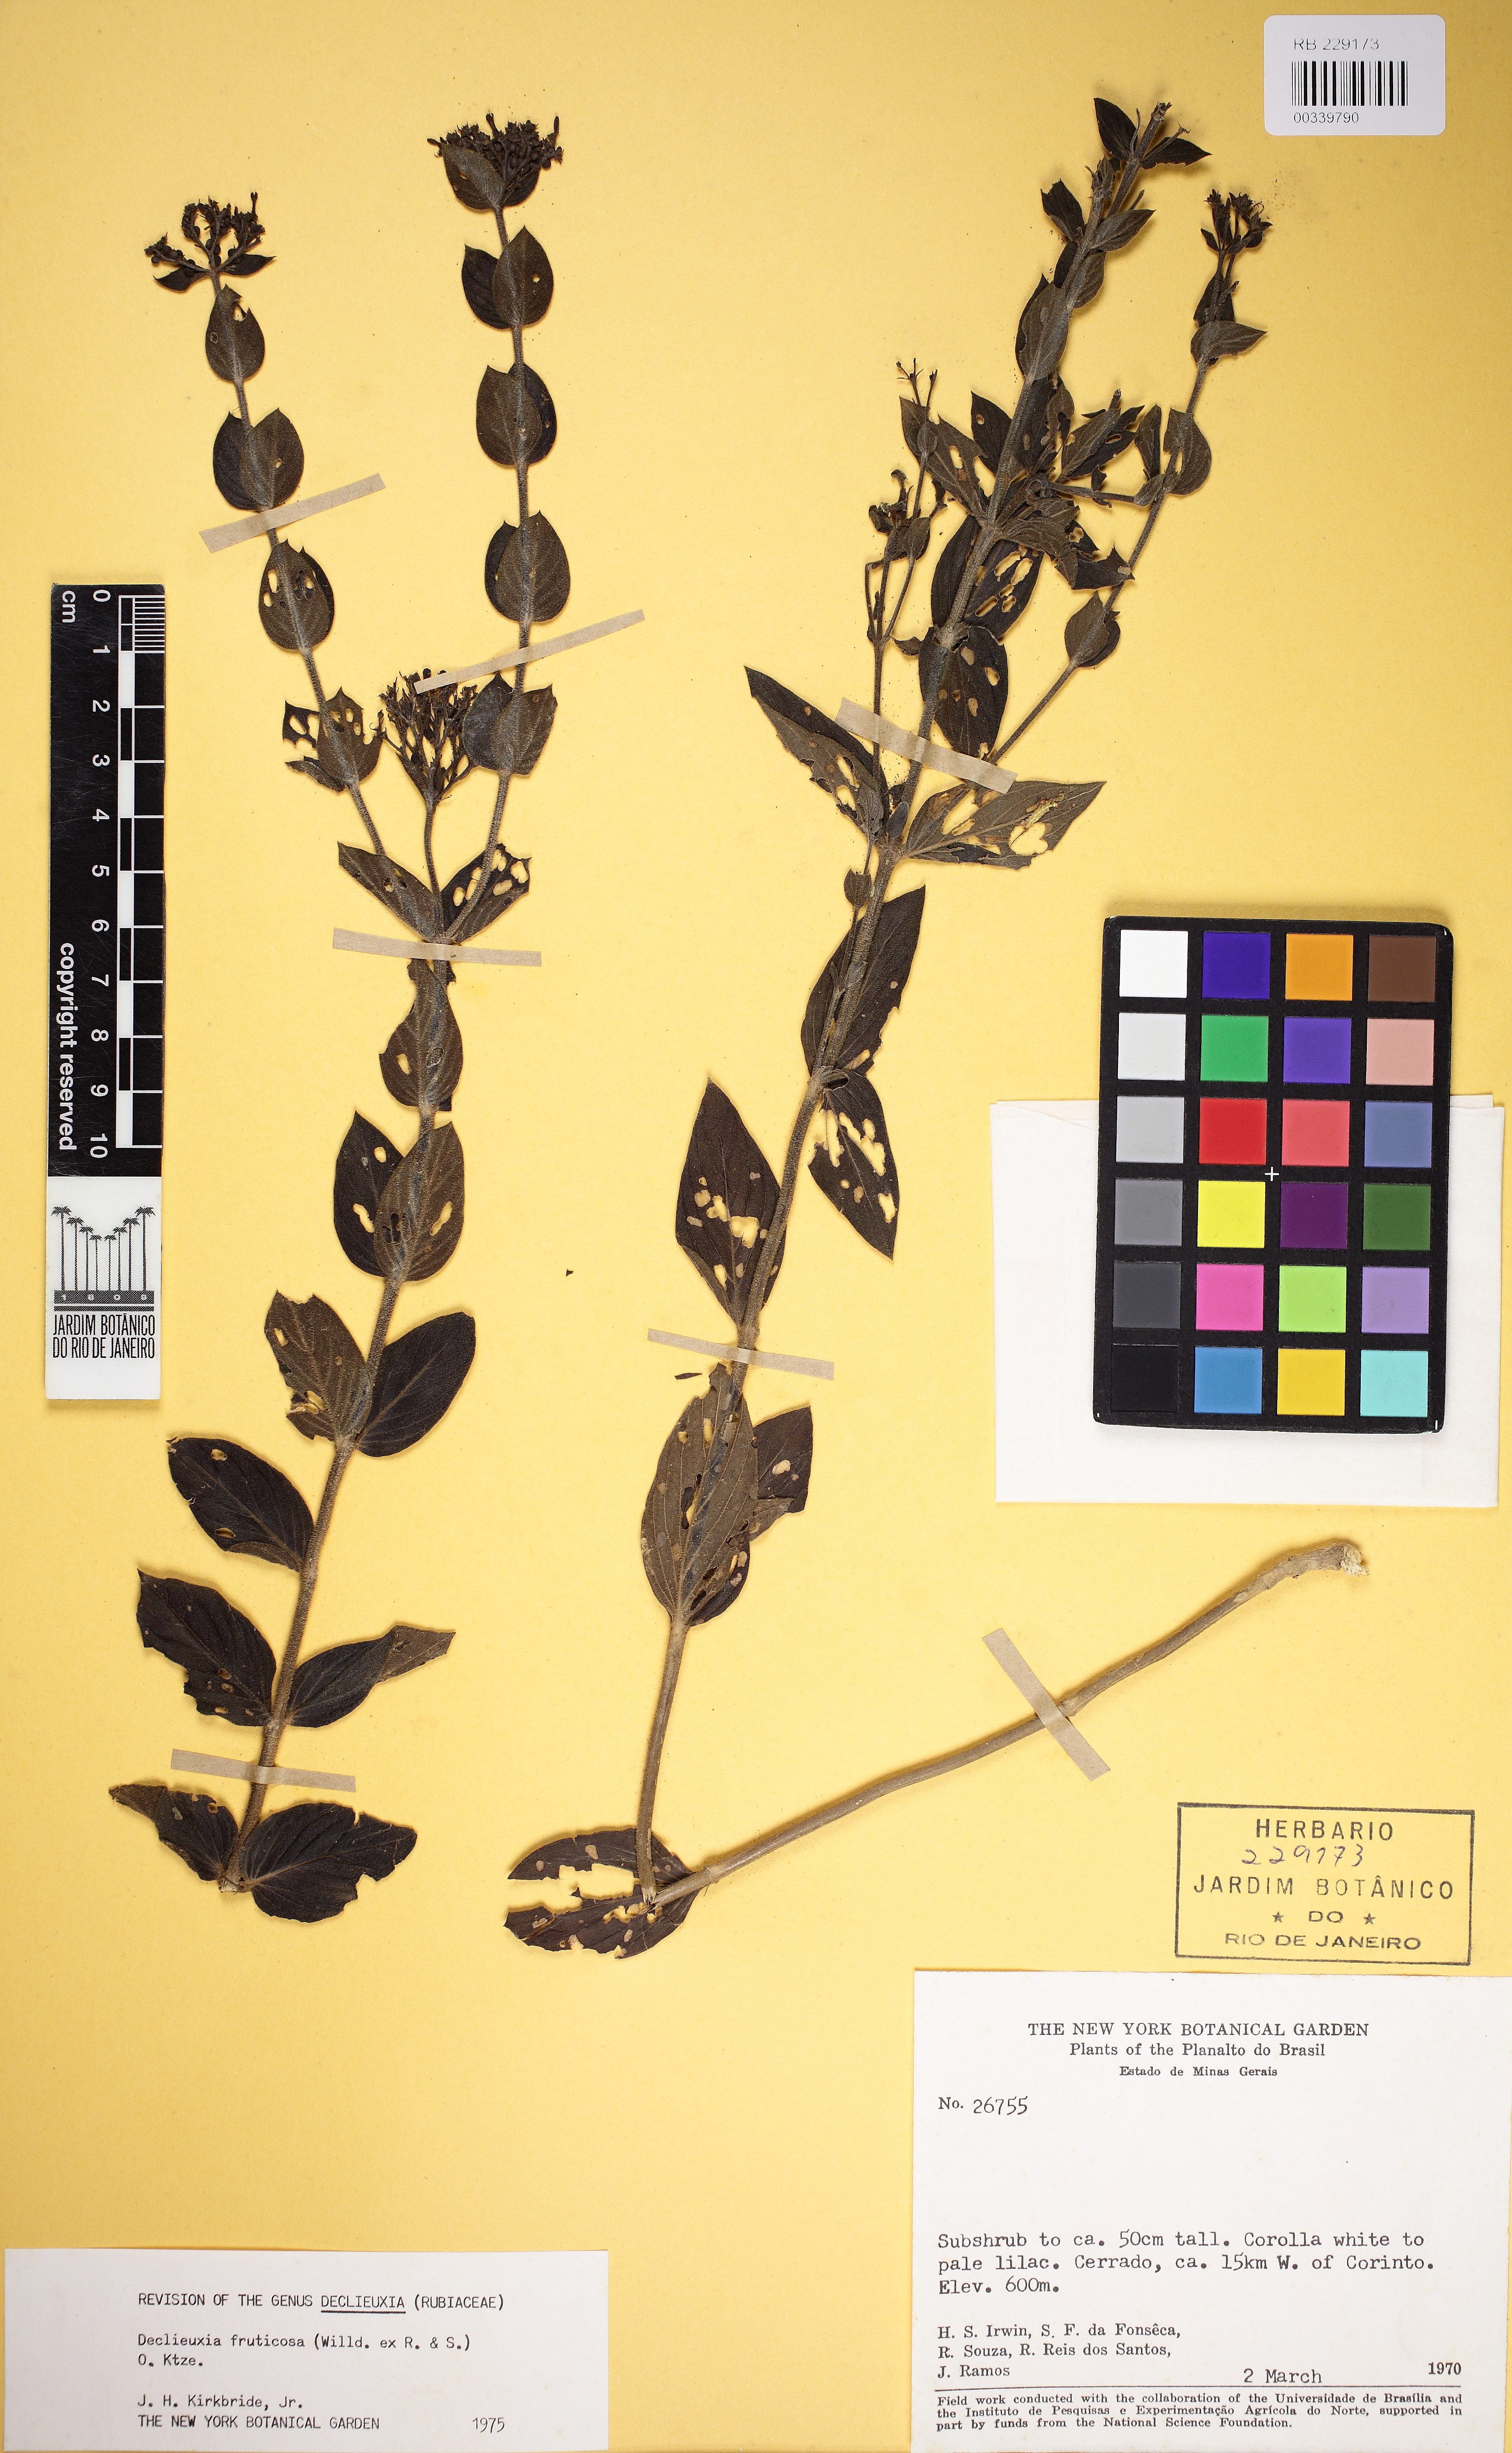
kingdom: Plantae
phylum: Tracheophyta
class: Magnoliopsida
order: Gentianales
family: Rubiaceae
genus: Declieuxia
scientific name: Declieuxia fruticosa
